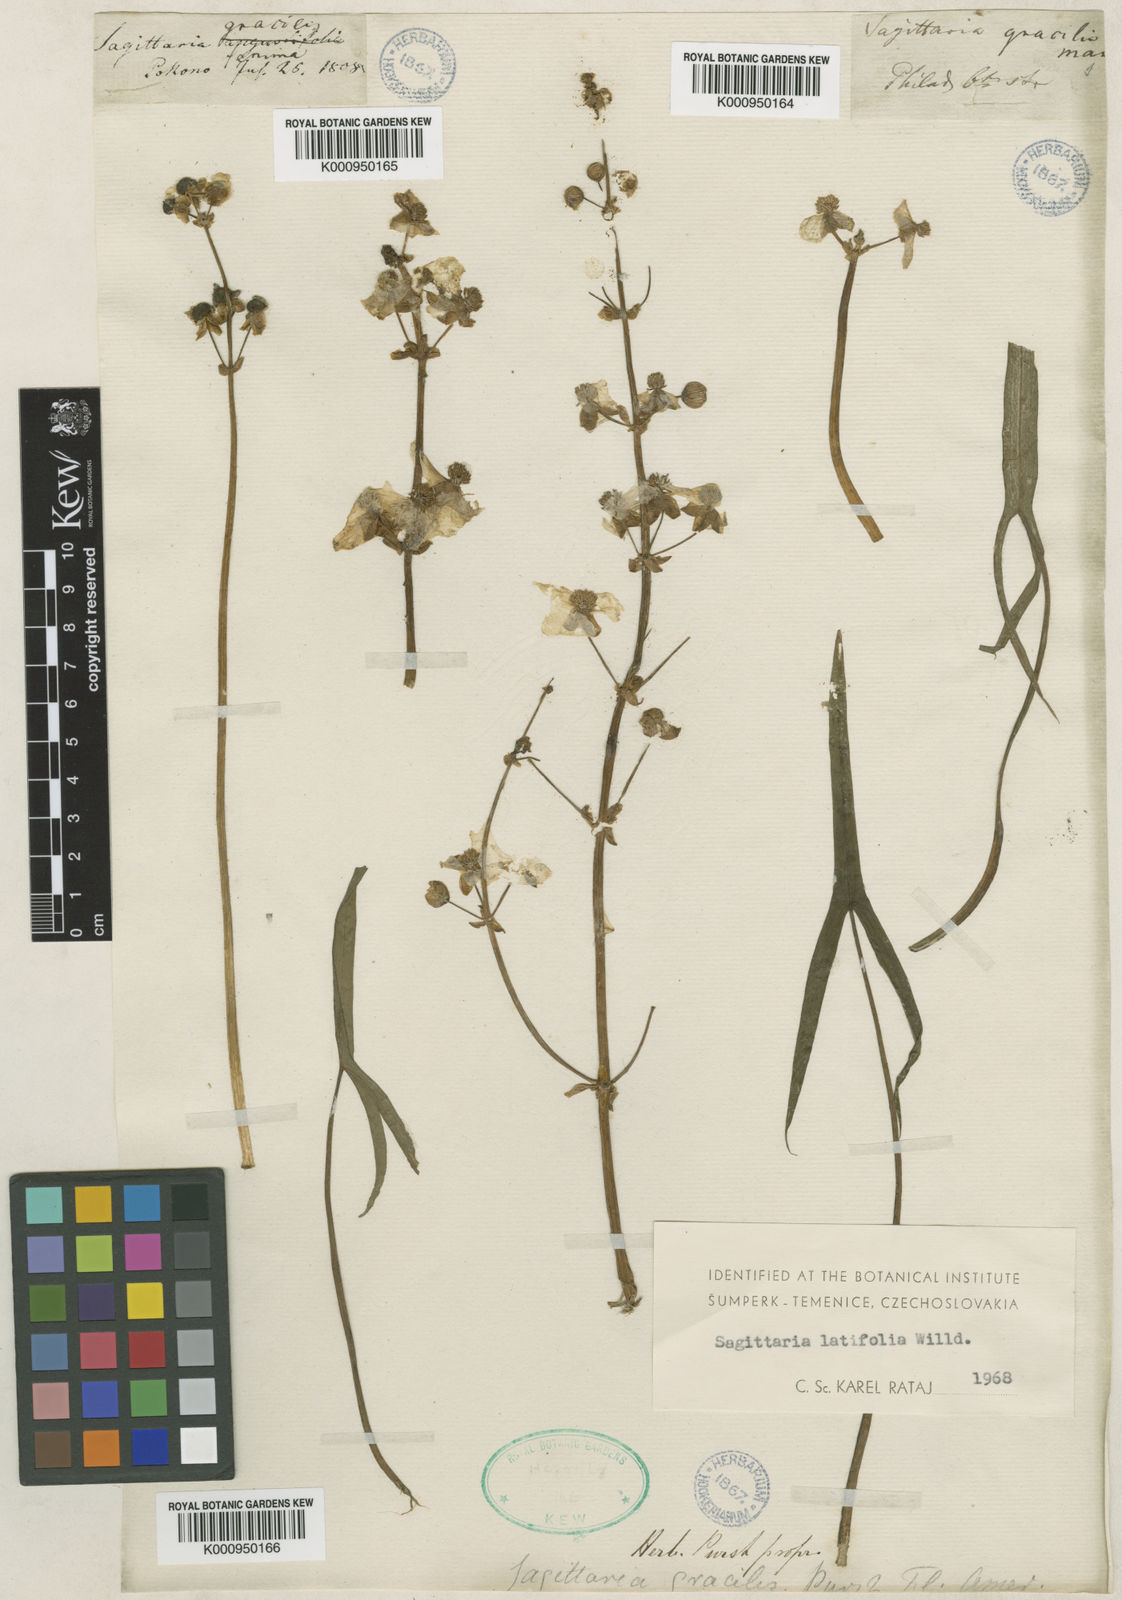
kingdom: Plantae
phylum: Tracheophyta
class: Liliopsida
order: Alismatales
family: Alismataceae
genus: Sagittaria
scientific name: Sagittaria latifolia
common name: Duck-potato
